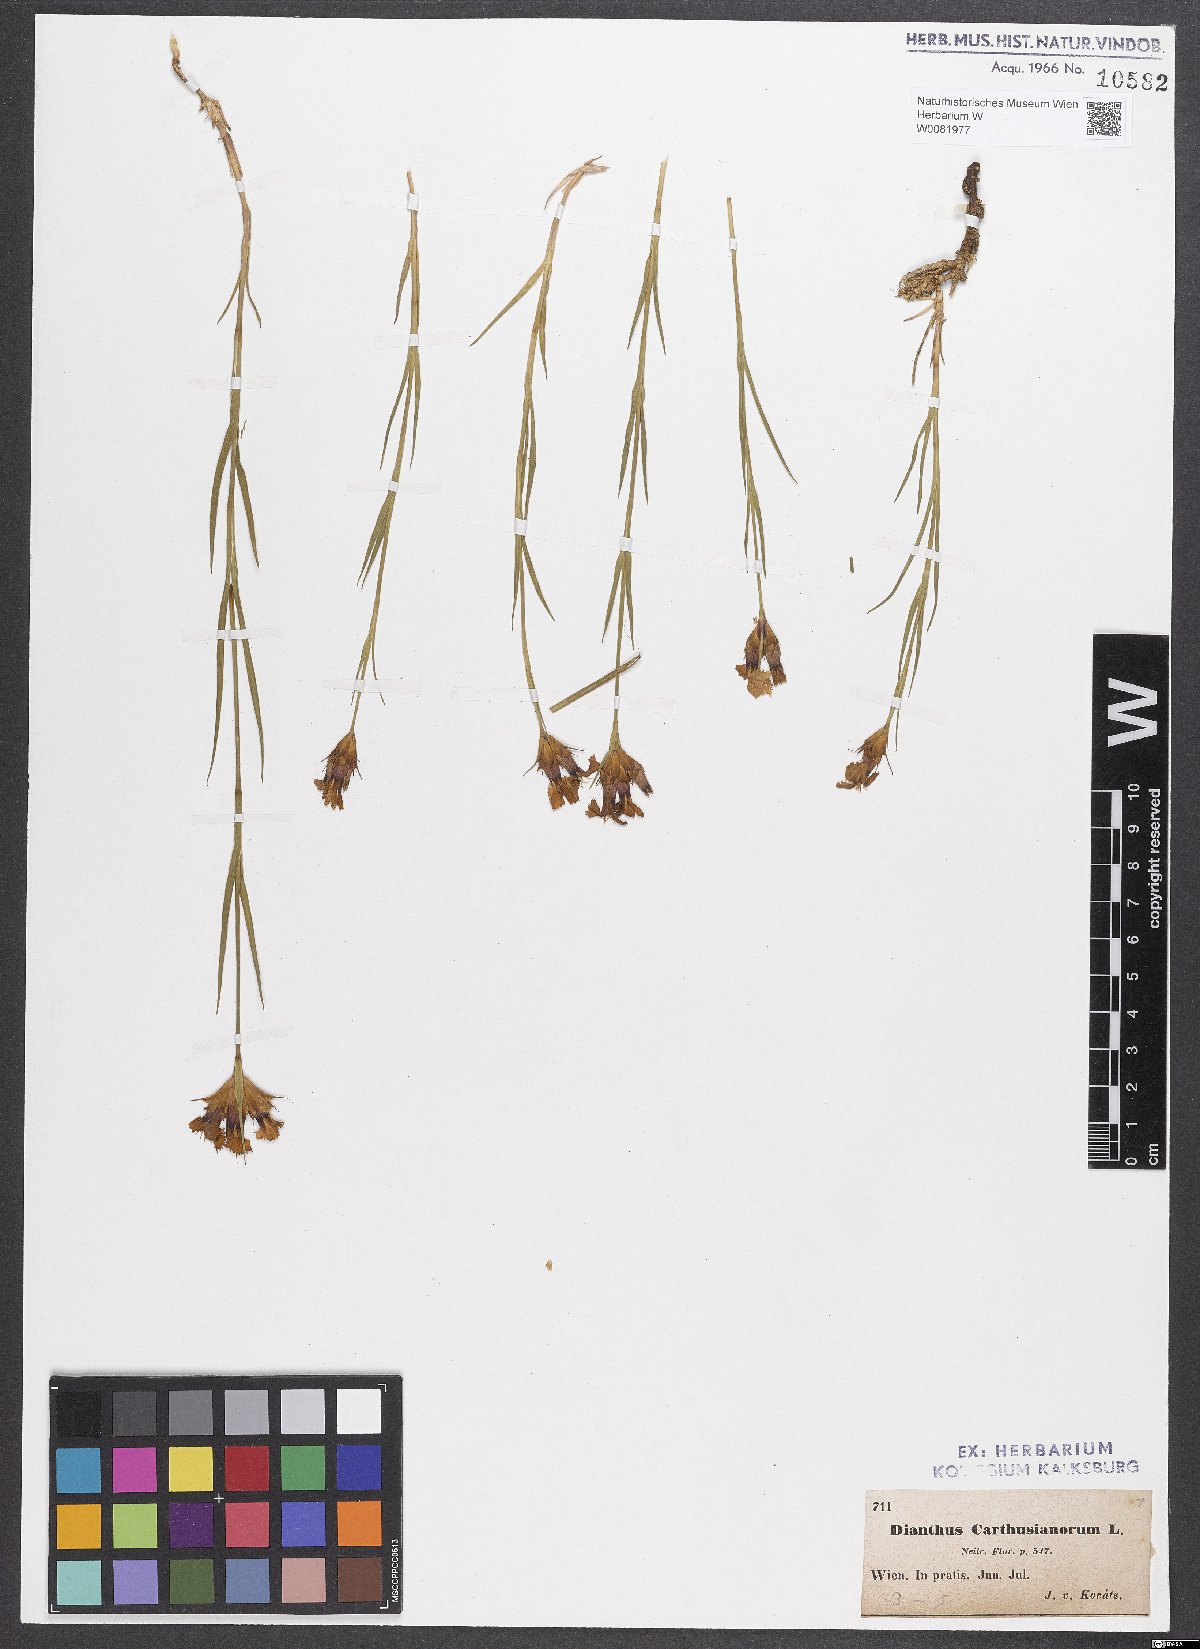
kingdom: Plantae
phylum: Tracheophyta
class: Magnoliopsida
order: Caryophyllales
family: Caryophyllaceae
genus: Dianthus
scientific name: Dianthus carthusianorum
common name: Carthusian pink
